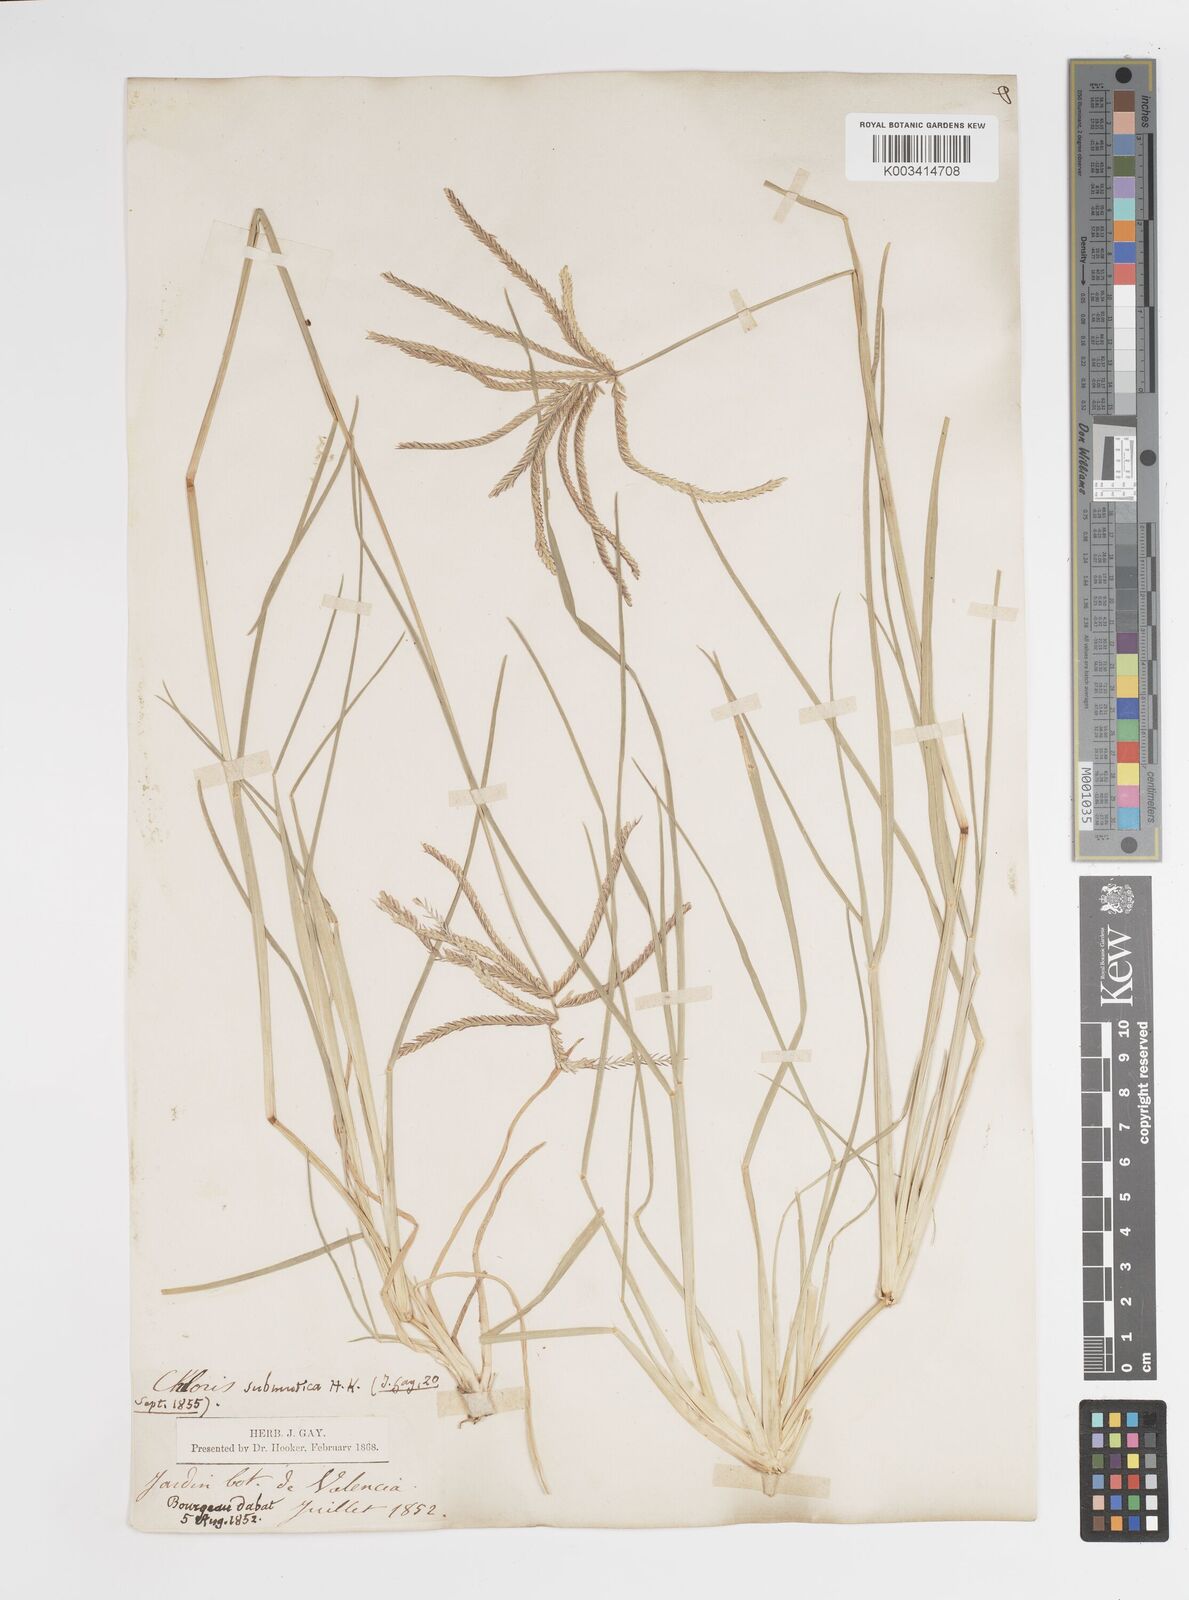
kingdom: Plantae
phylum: Tracheophyta
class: Liliopsida
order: Poales
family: Poaceae
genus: Chloris
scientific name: Chloris submutica
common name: Mexican windmill grass
